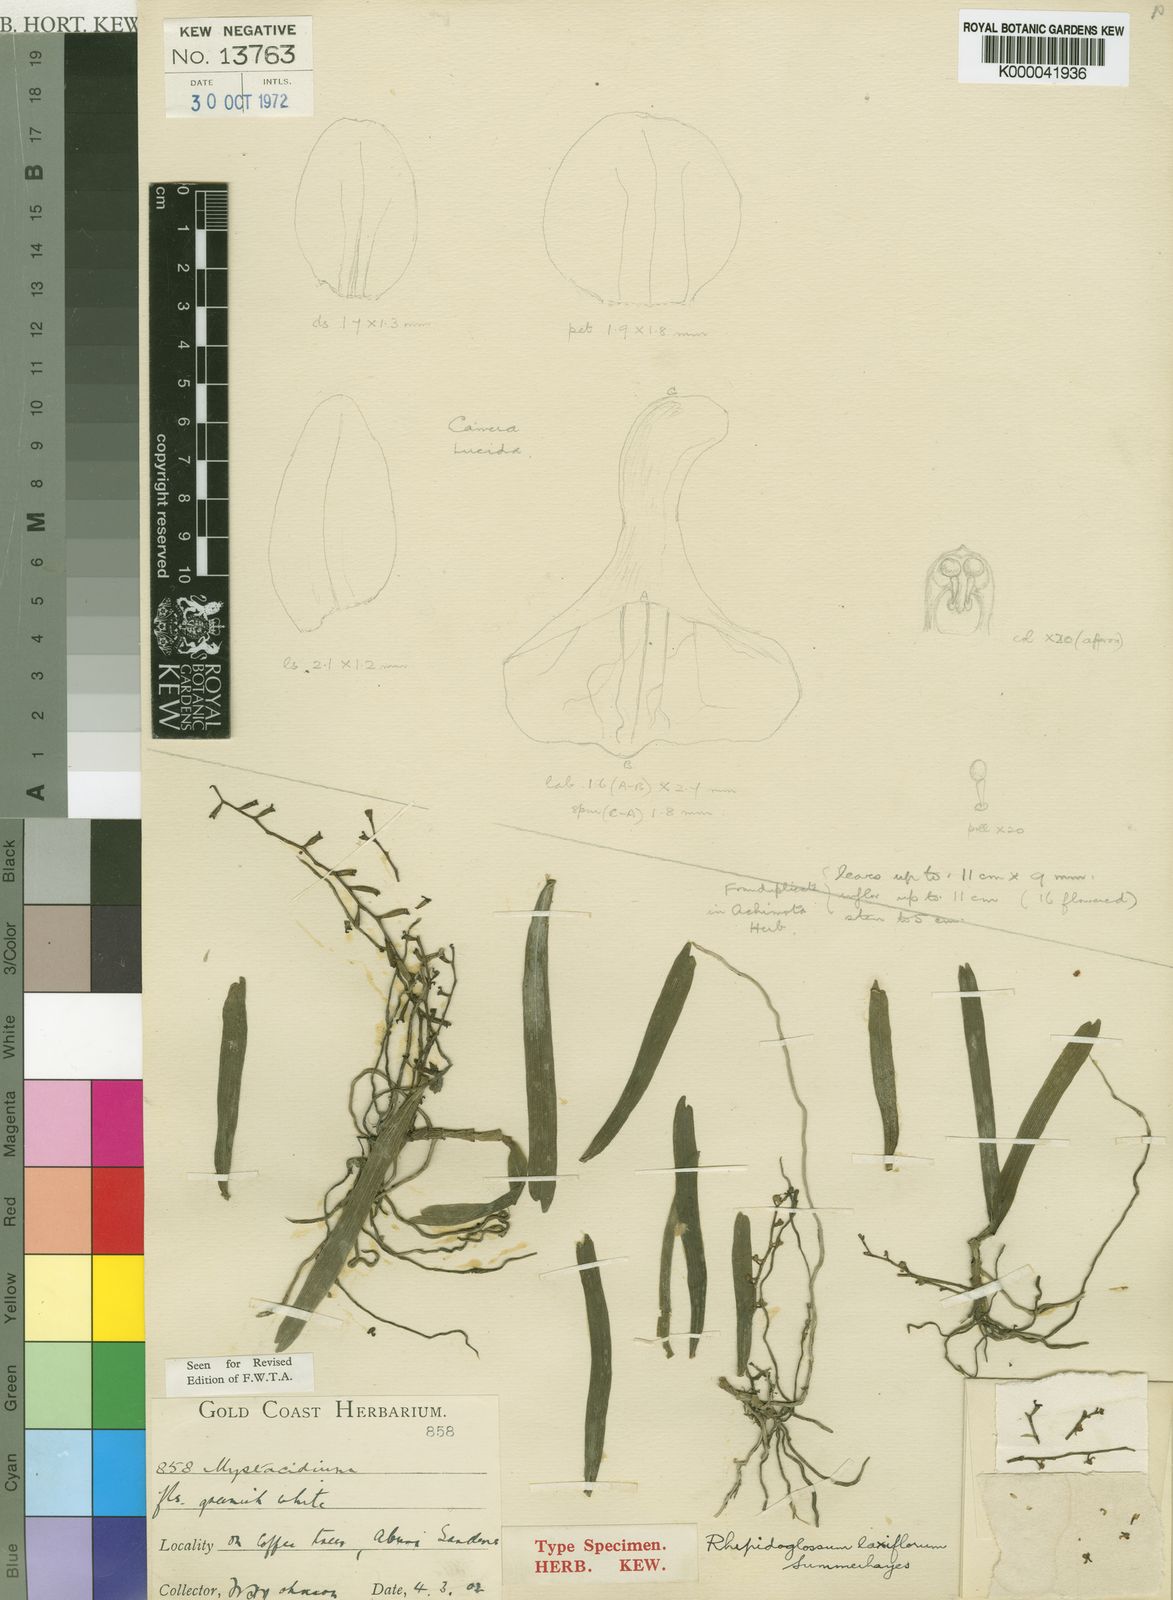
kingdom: Plantae
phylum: Tracheophyta
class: Liliopsida
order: Asparagales
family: Orchidaceae
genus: Rhipidoglossum
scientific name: Rhipidoglossum laxiflorum
